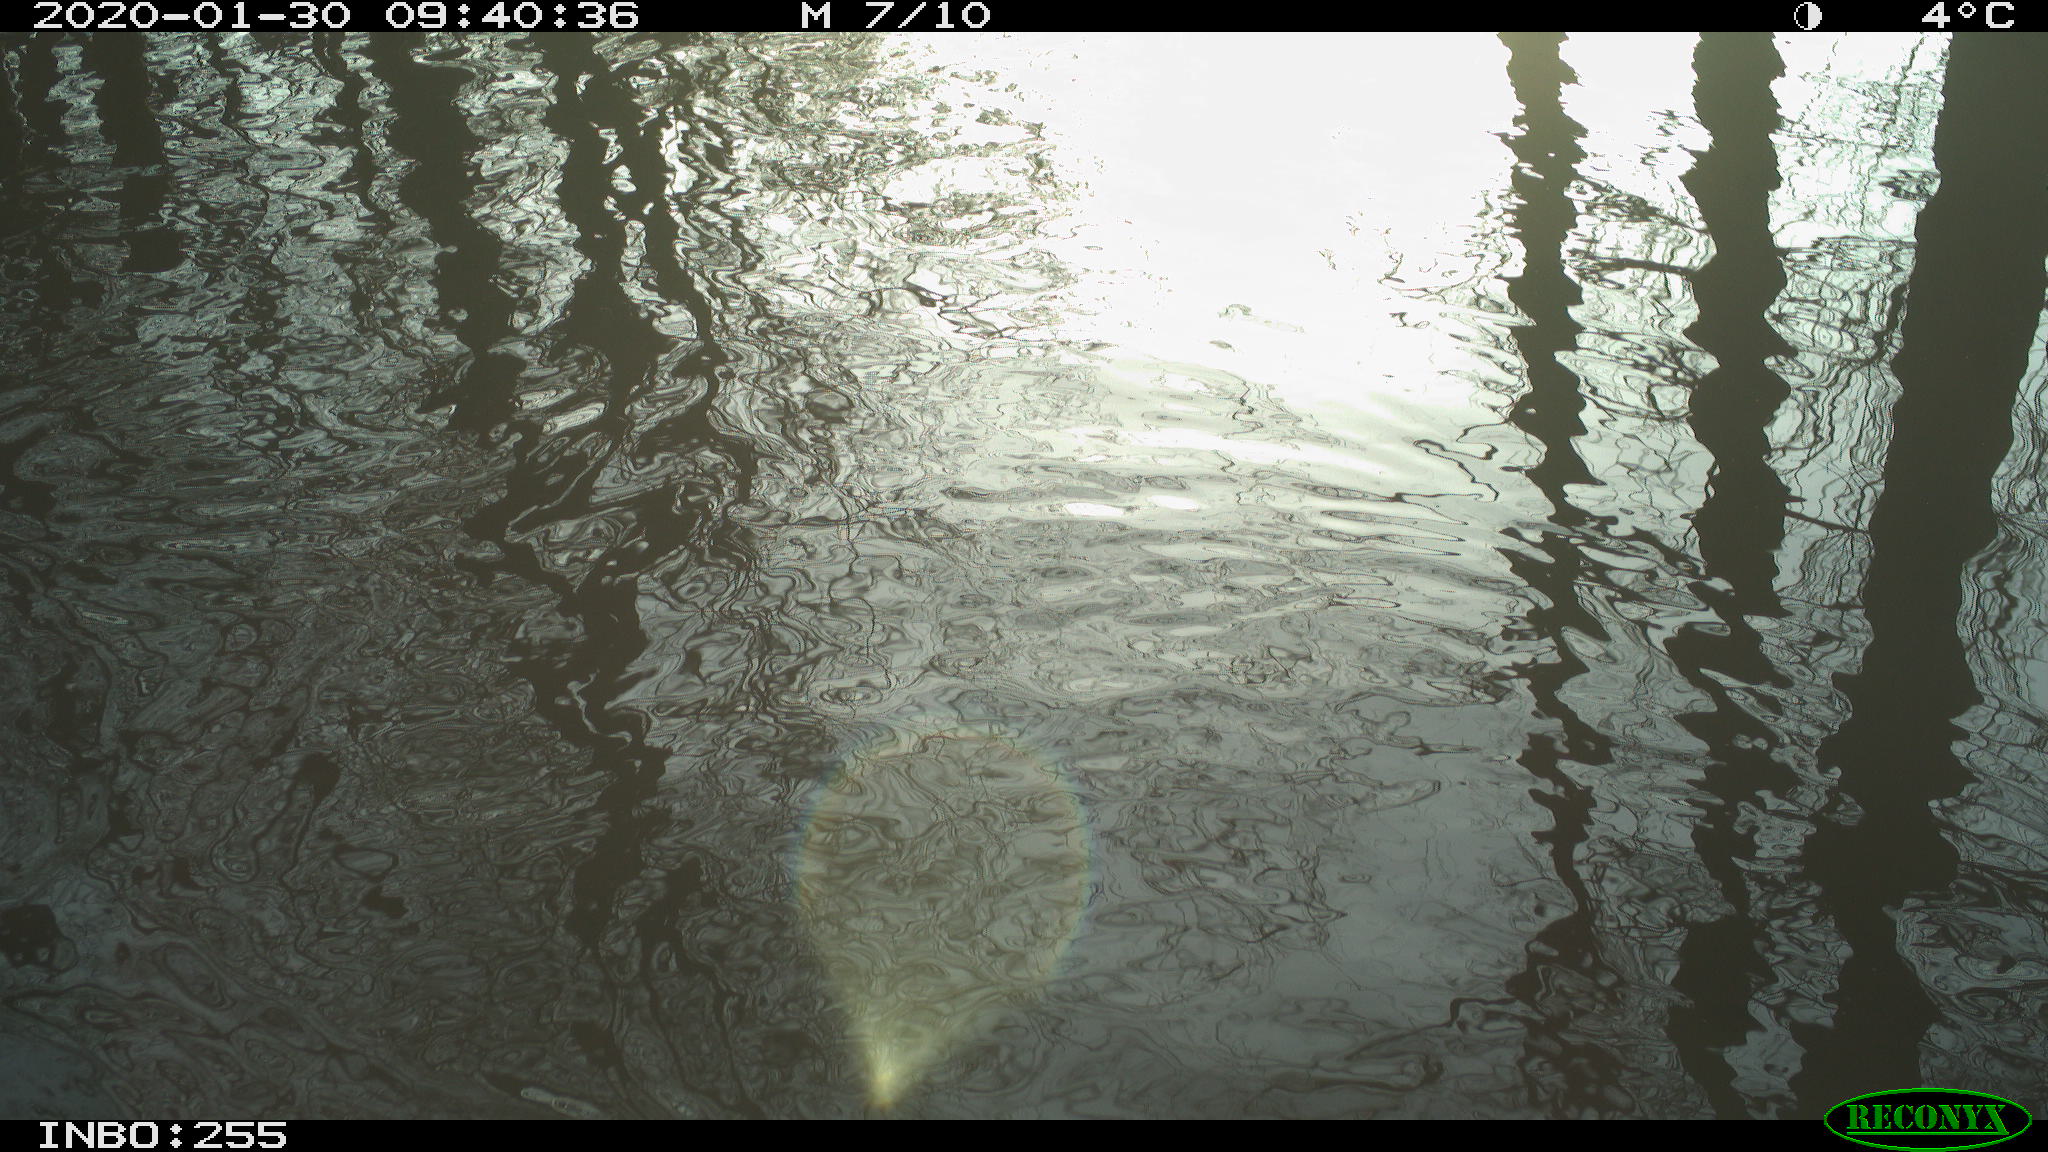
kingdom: Animalia
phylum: Chordata
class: Aves
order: Gruiformes
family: Rallidae
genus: Fulica
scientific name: Fulica atra
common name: Eurasian coot
